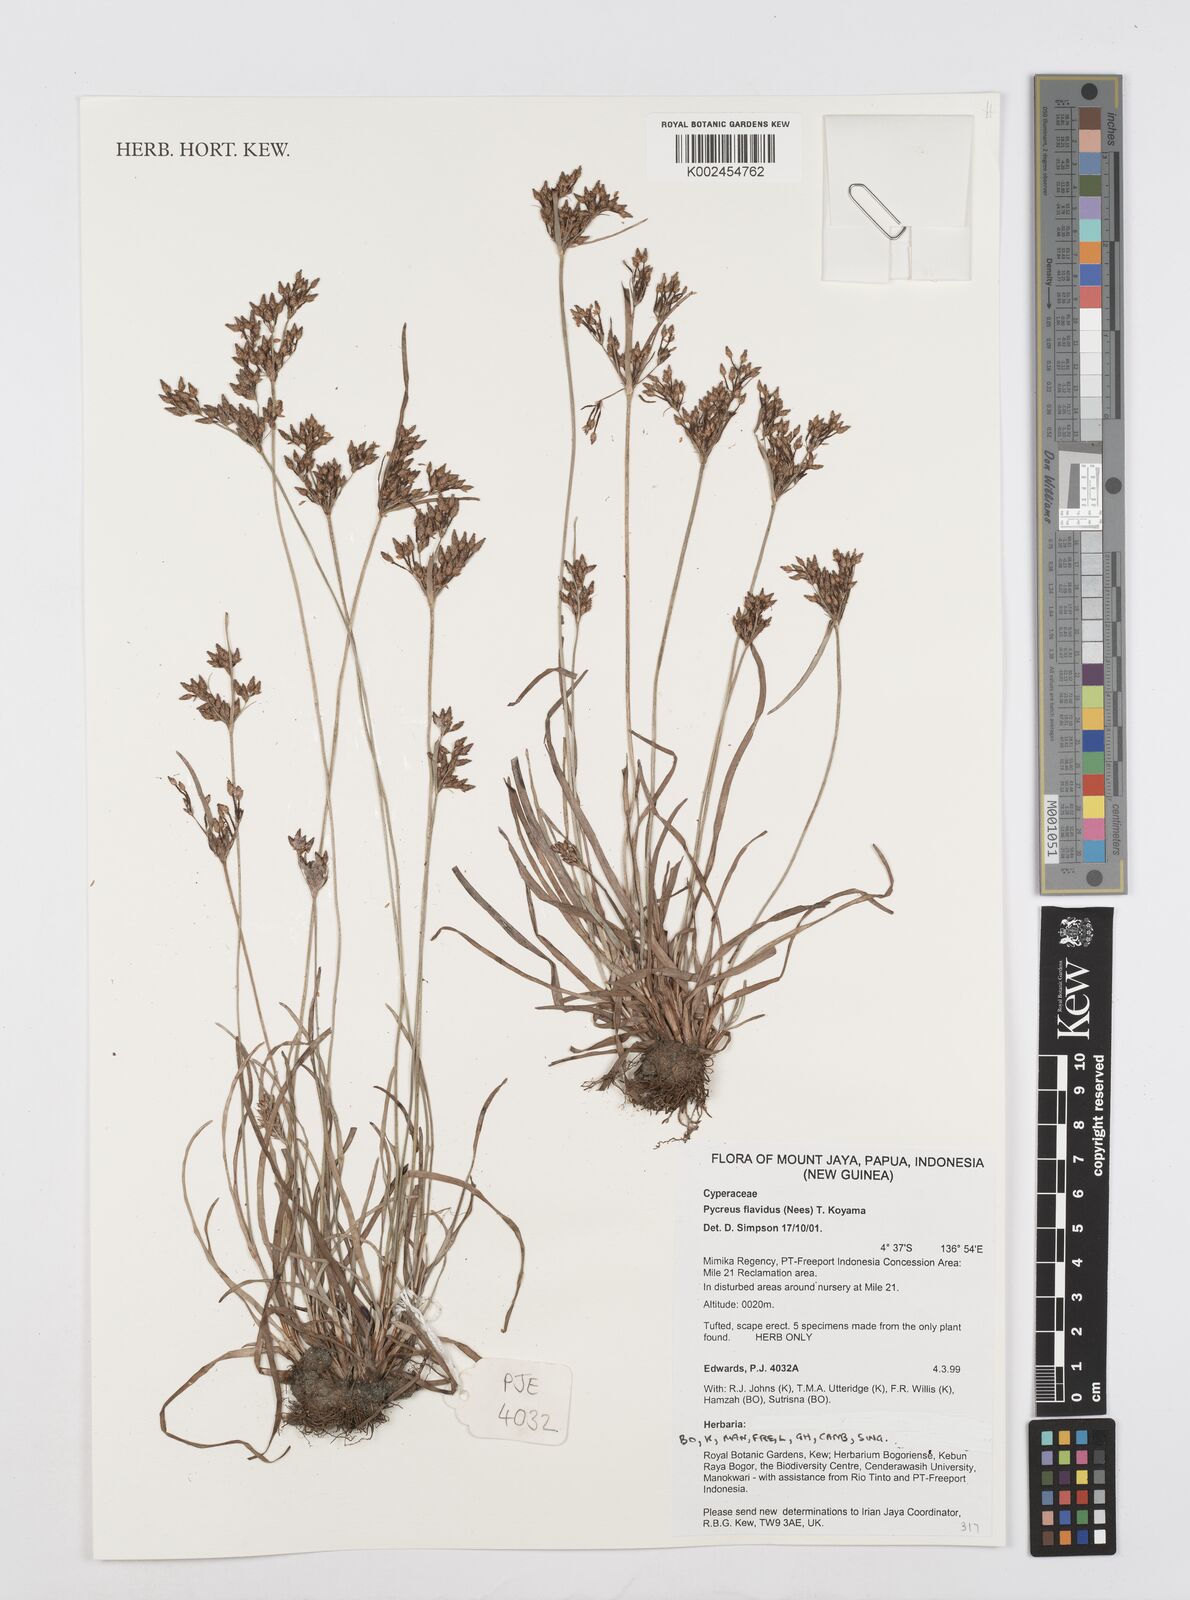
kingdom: Plantae
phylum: Tracheophyta
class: Liliopsida
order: Poales
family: Cyperaceae
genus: Cyperus
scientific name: Cyperus
